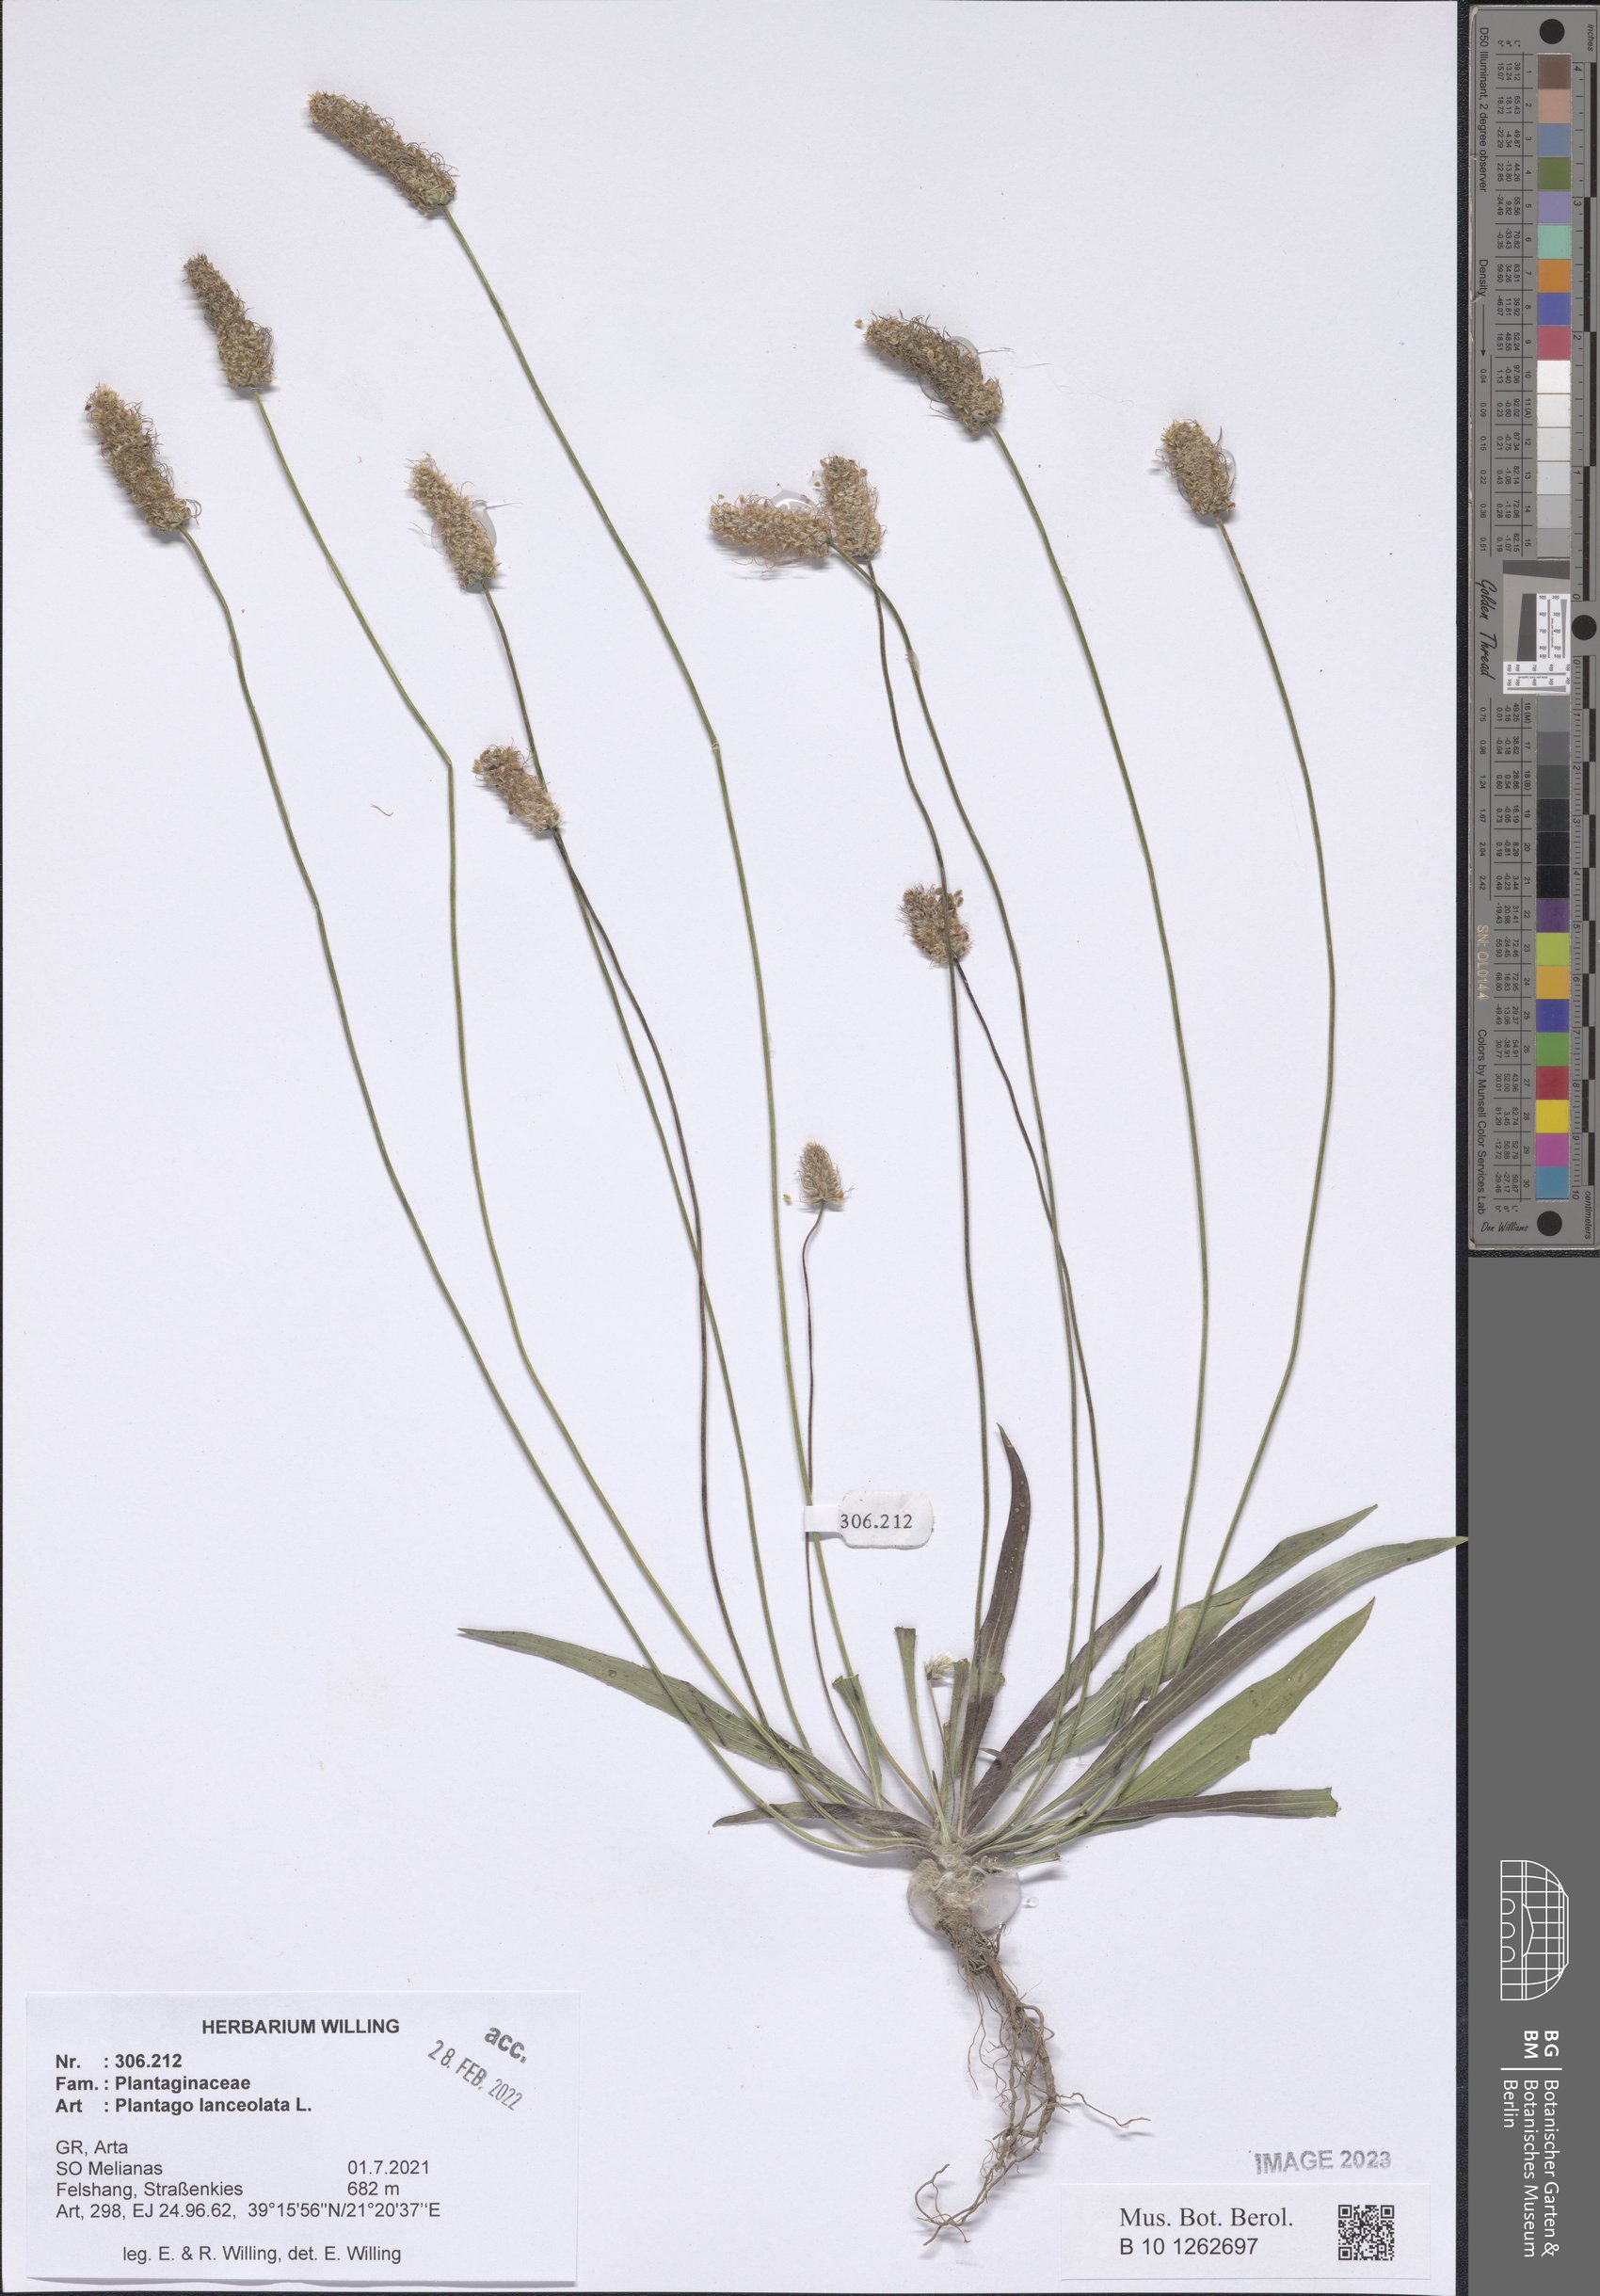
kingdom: Plantae
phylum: Tracheophyta
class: Magnoliopsida
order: Lamiales
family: Plantaginaceae
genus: Plantago
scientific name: Plantago lanceolata
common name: Ribwort plantain
